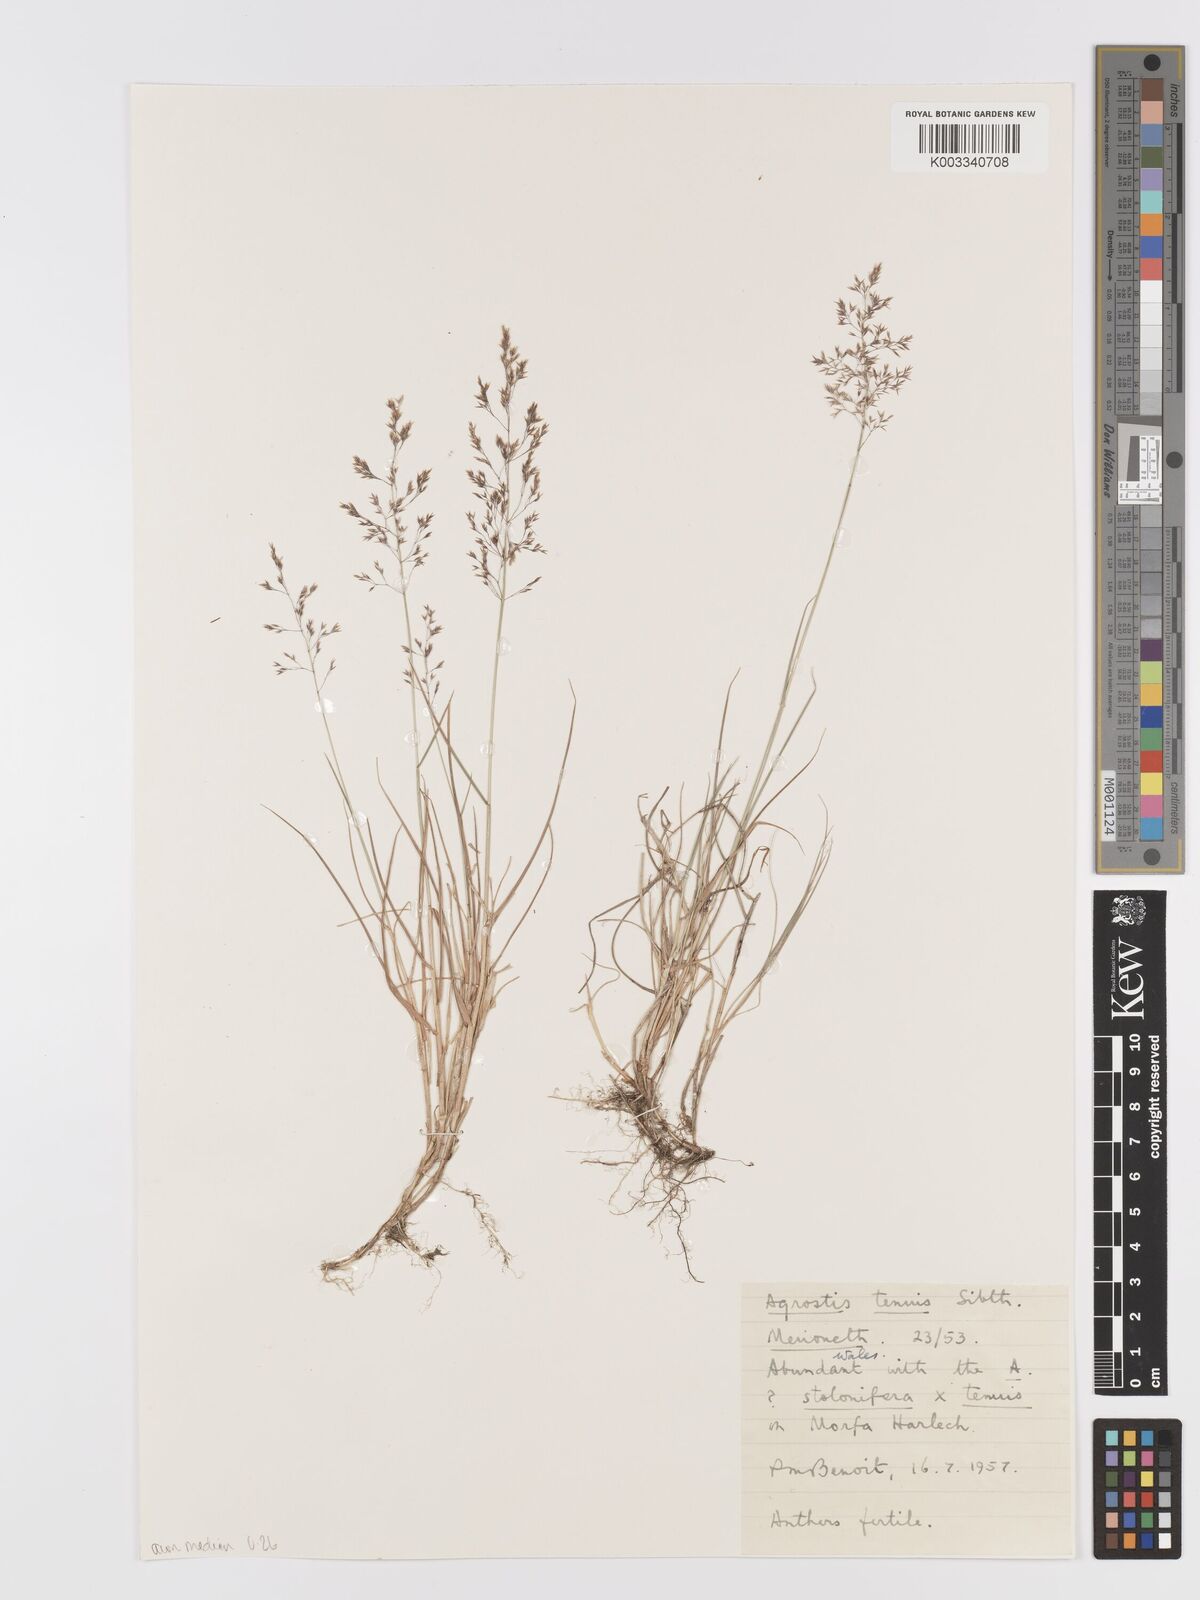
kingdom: Plantae
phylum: Tracheophyta
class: Liliopsida
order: Poales
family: Poaceae
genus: Agrostis
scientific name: Agrostis capillaris
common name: Colonial bentgrass
